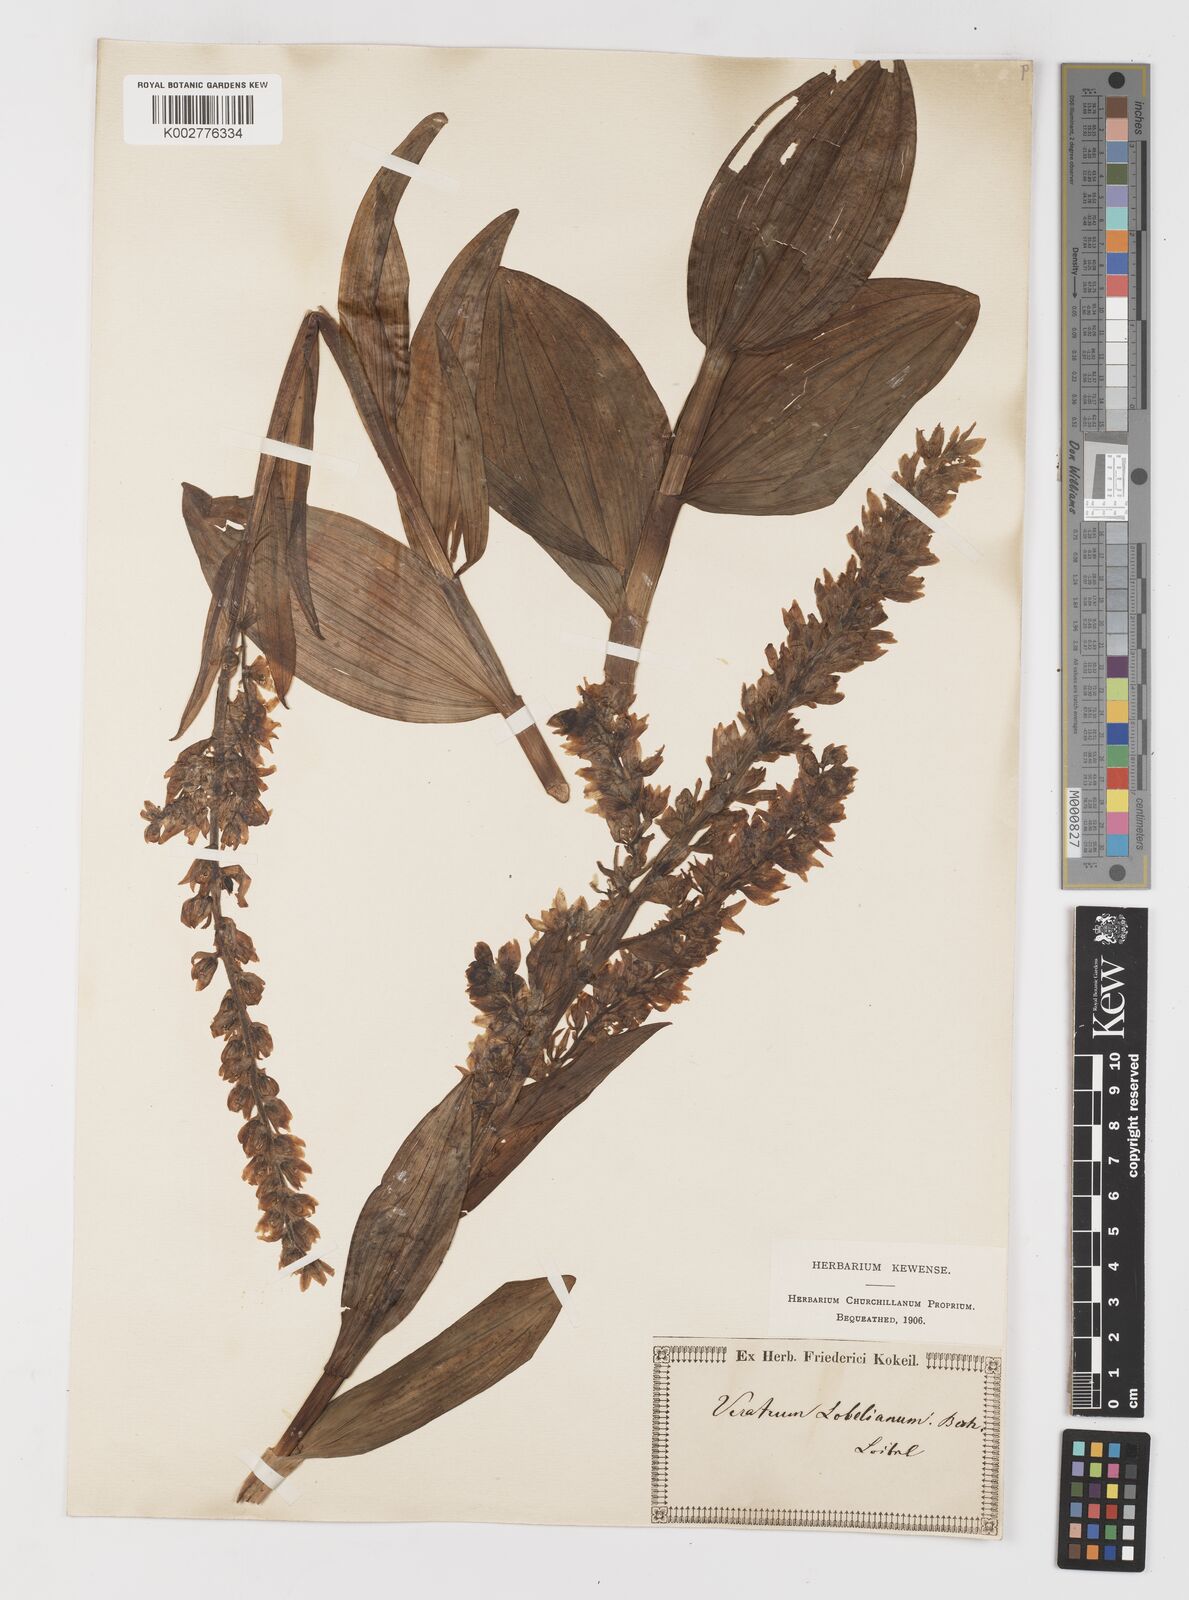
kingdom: Plantae
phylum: Tracheophyta
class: Liliopsida
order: Liliales
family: Melanthiaceae
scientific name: Melanthiaceae
